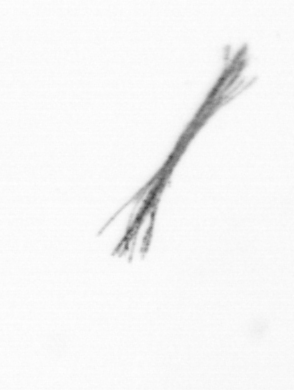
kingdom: Bacteria
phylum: Cyanobacteria
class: Cyanobacteriia
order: Cyanobacteriales
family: Microcoleaceae
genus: Trichodesmium
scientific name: Trichodesmium
